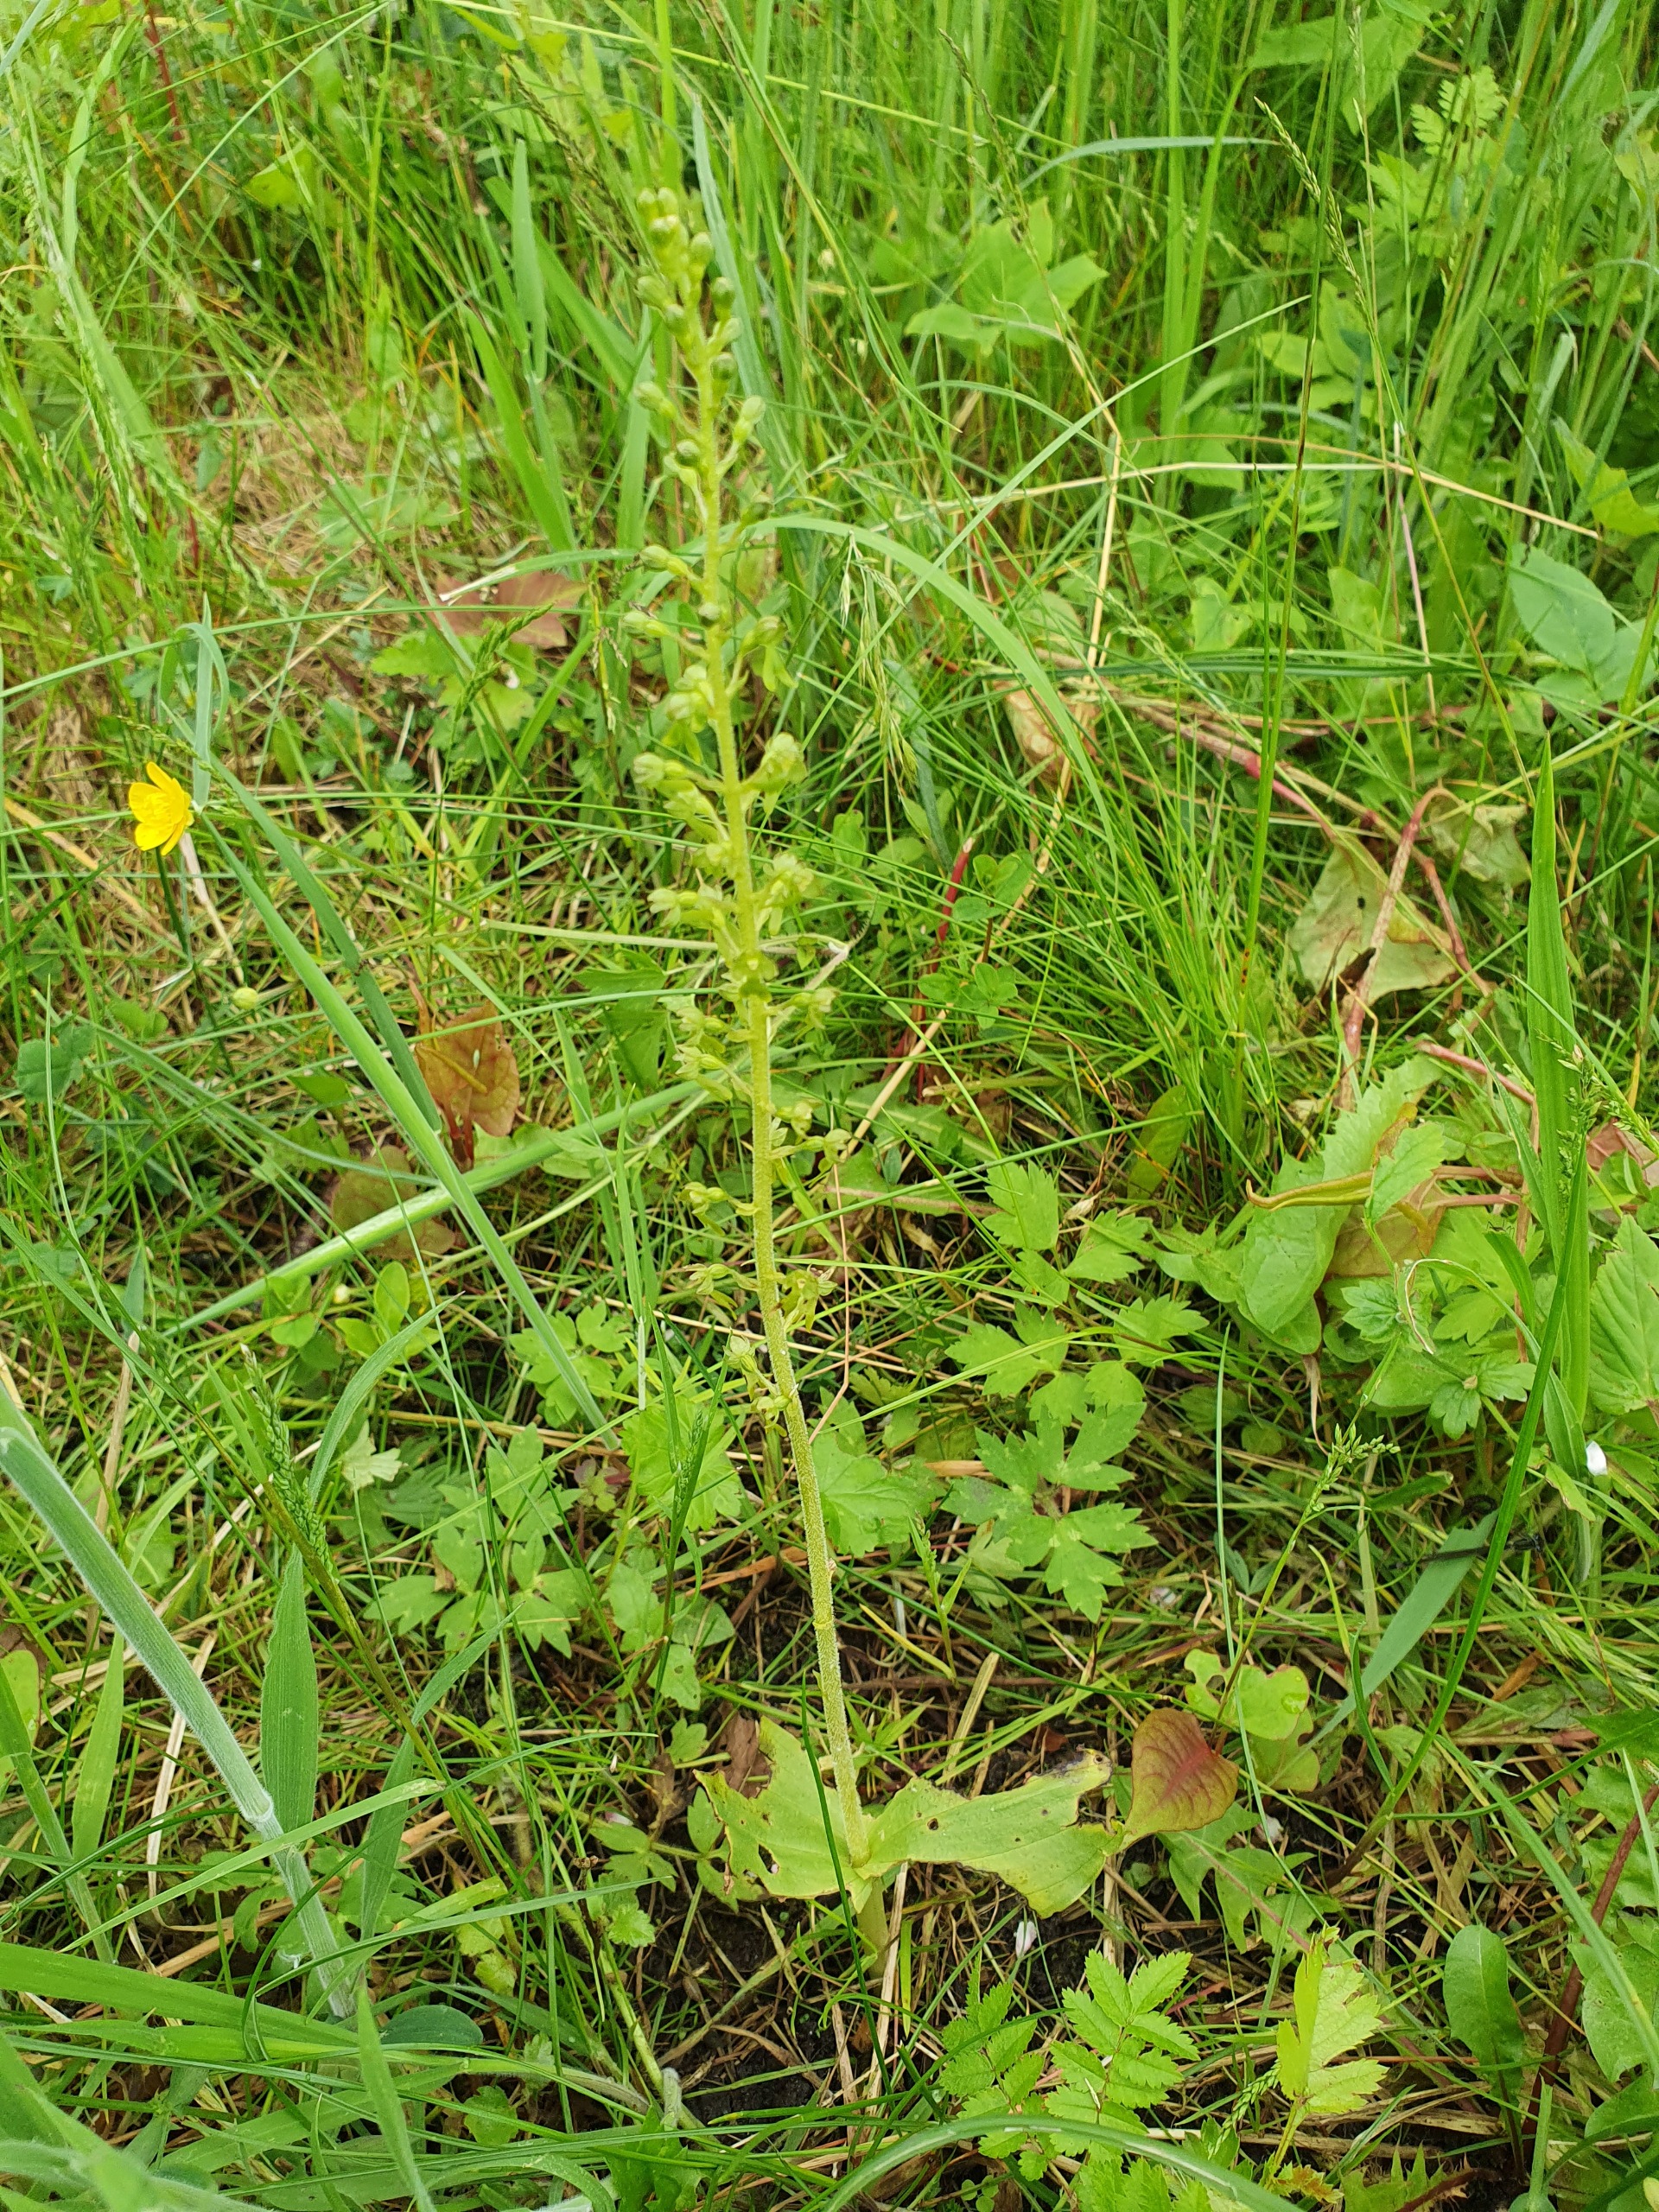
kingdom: Plantae
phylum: Tracheophyta
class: Liliopsida
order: Asparagales
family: Orchidaceae
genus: Neottia
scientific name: Neottia ovata
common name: Ægbladet fliglæbe
